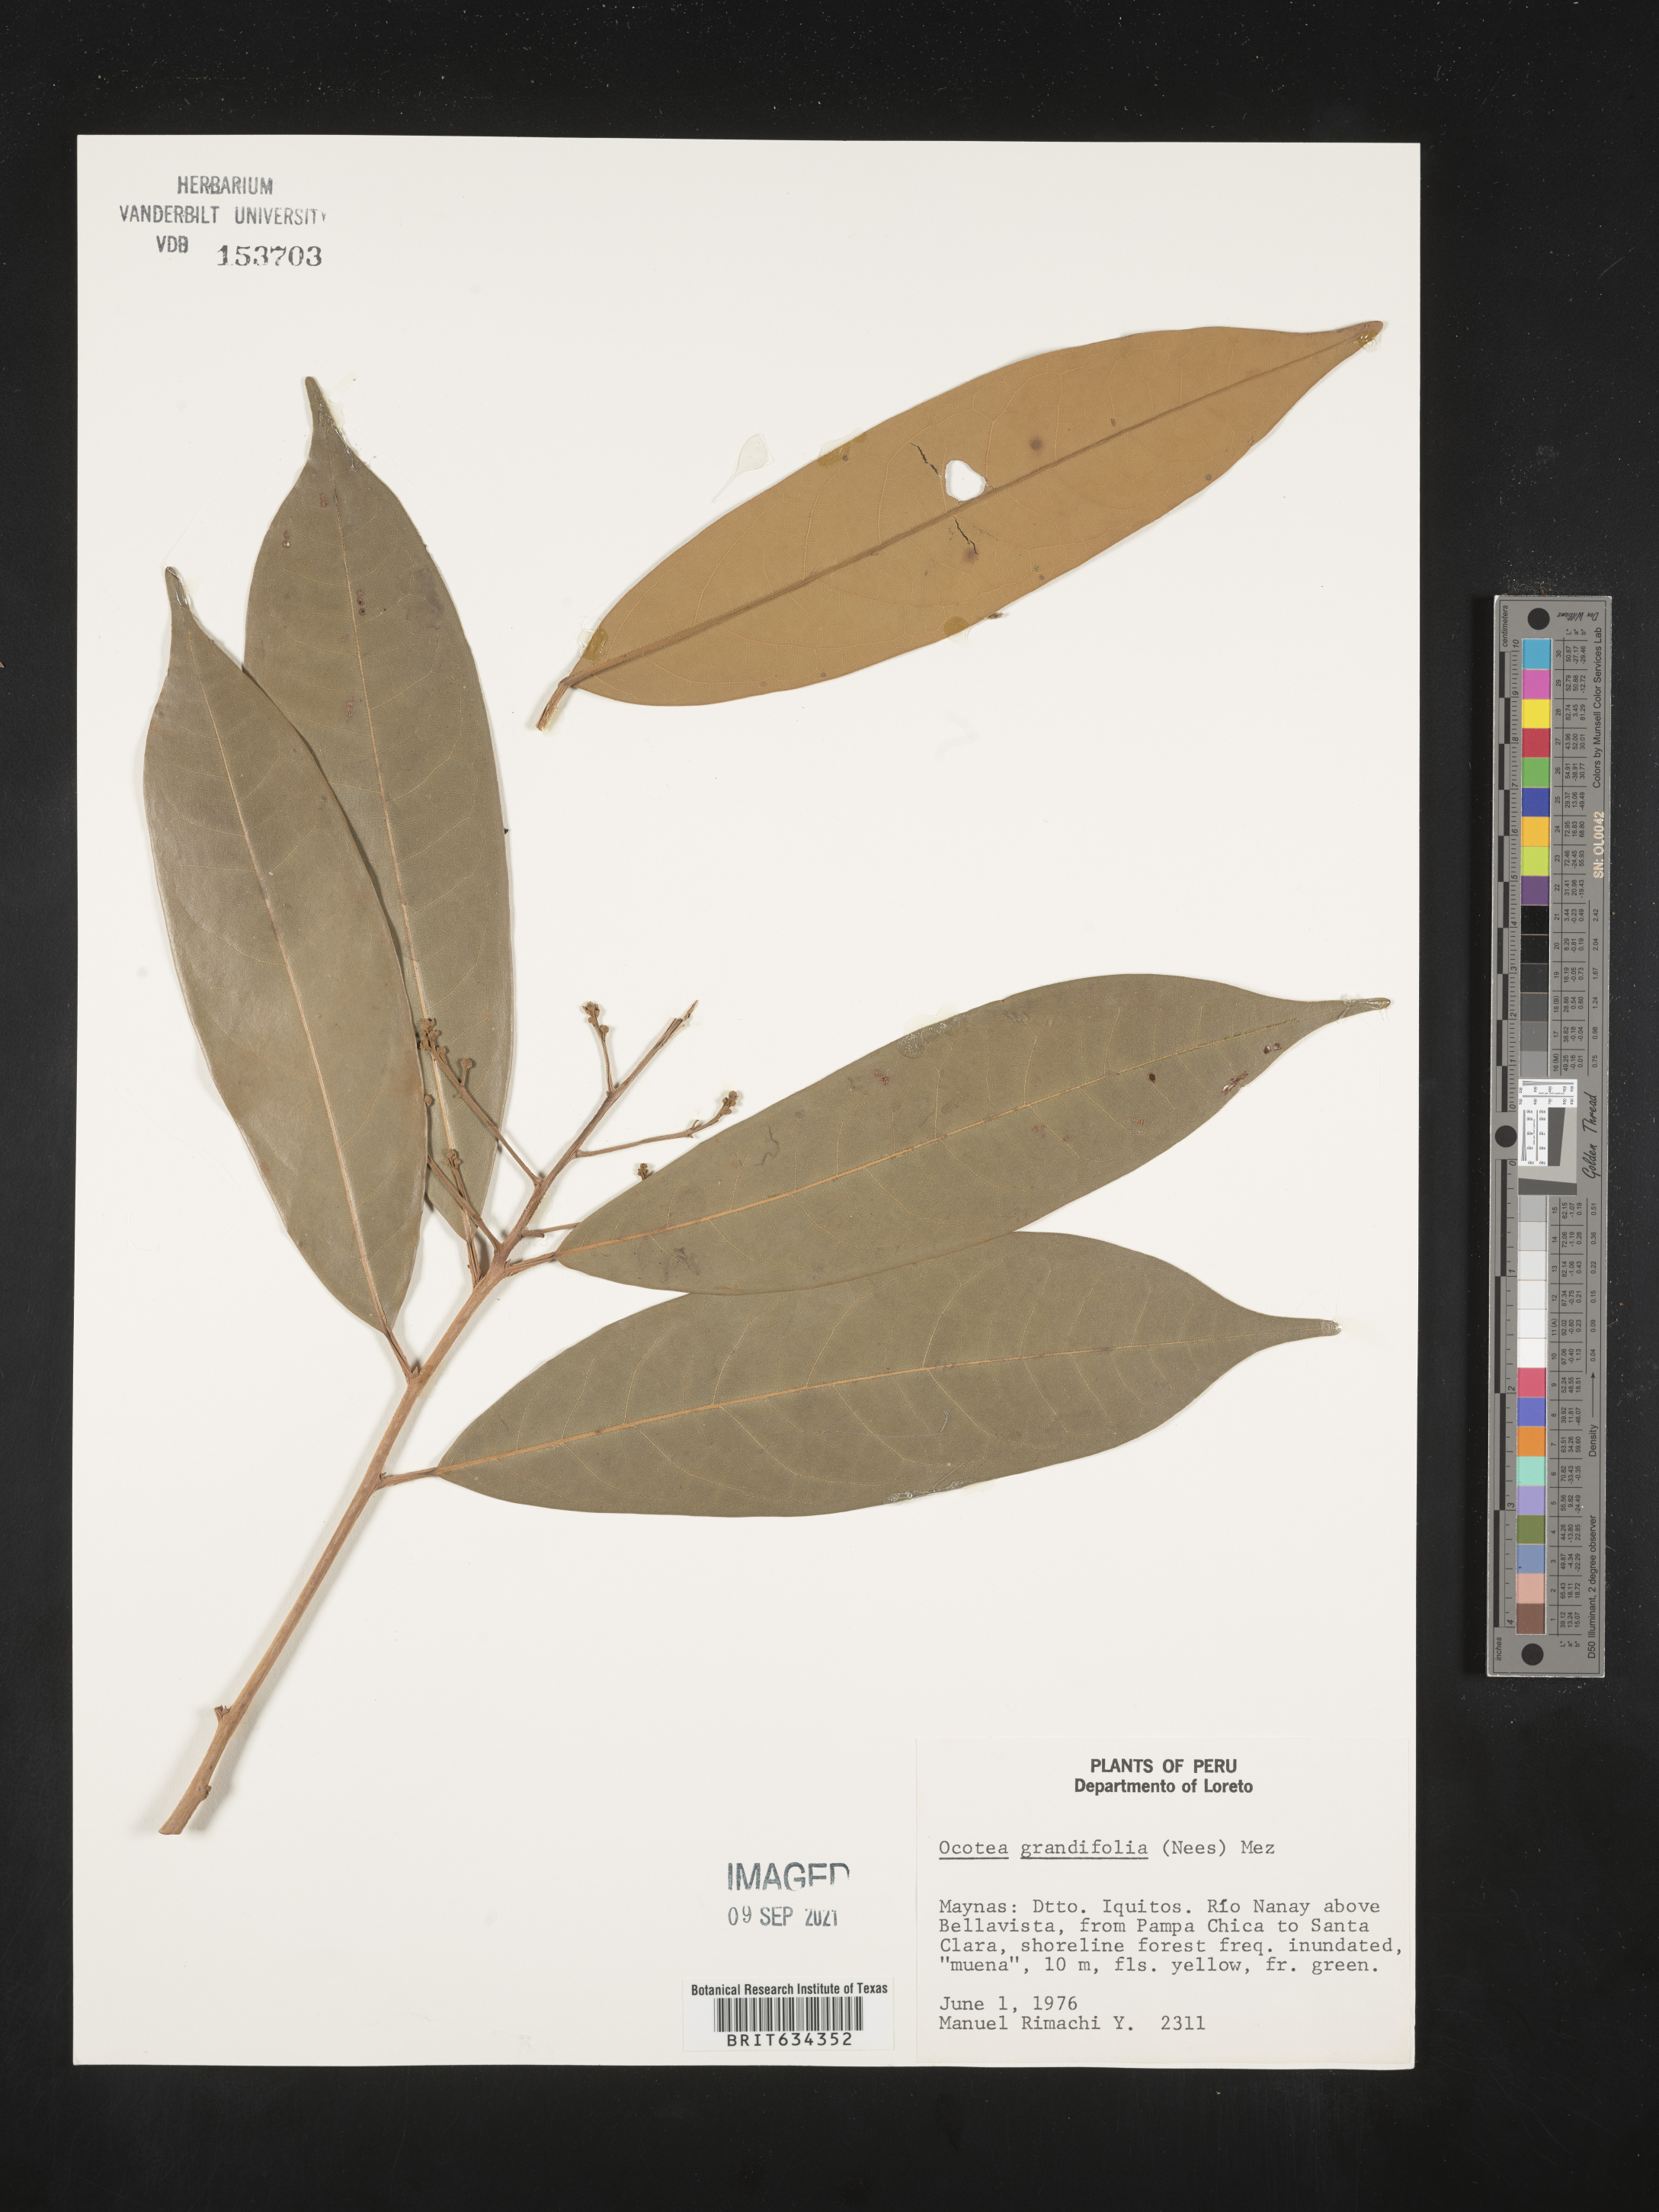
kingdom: Plantae
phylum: Tracheophyta
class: Magnoliopsida
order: Laurales
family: Lauraceae
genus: Ocotea
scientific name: Ocotea
